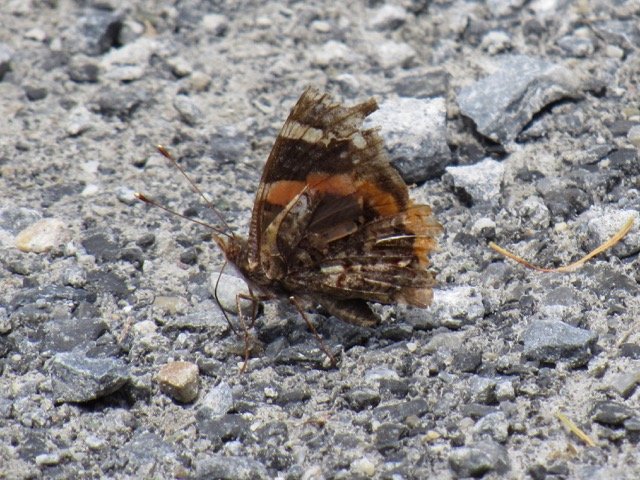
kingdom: Animalia
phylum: Arthropoda
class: Insecta
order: Lepidoptera
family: Nymphalidae
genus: Vanessa
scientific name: Vanessa atalanta
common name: Red Admiral
